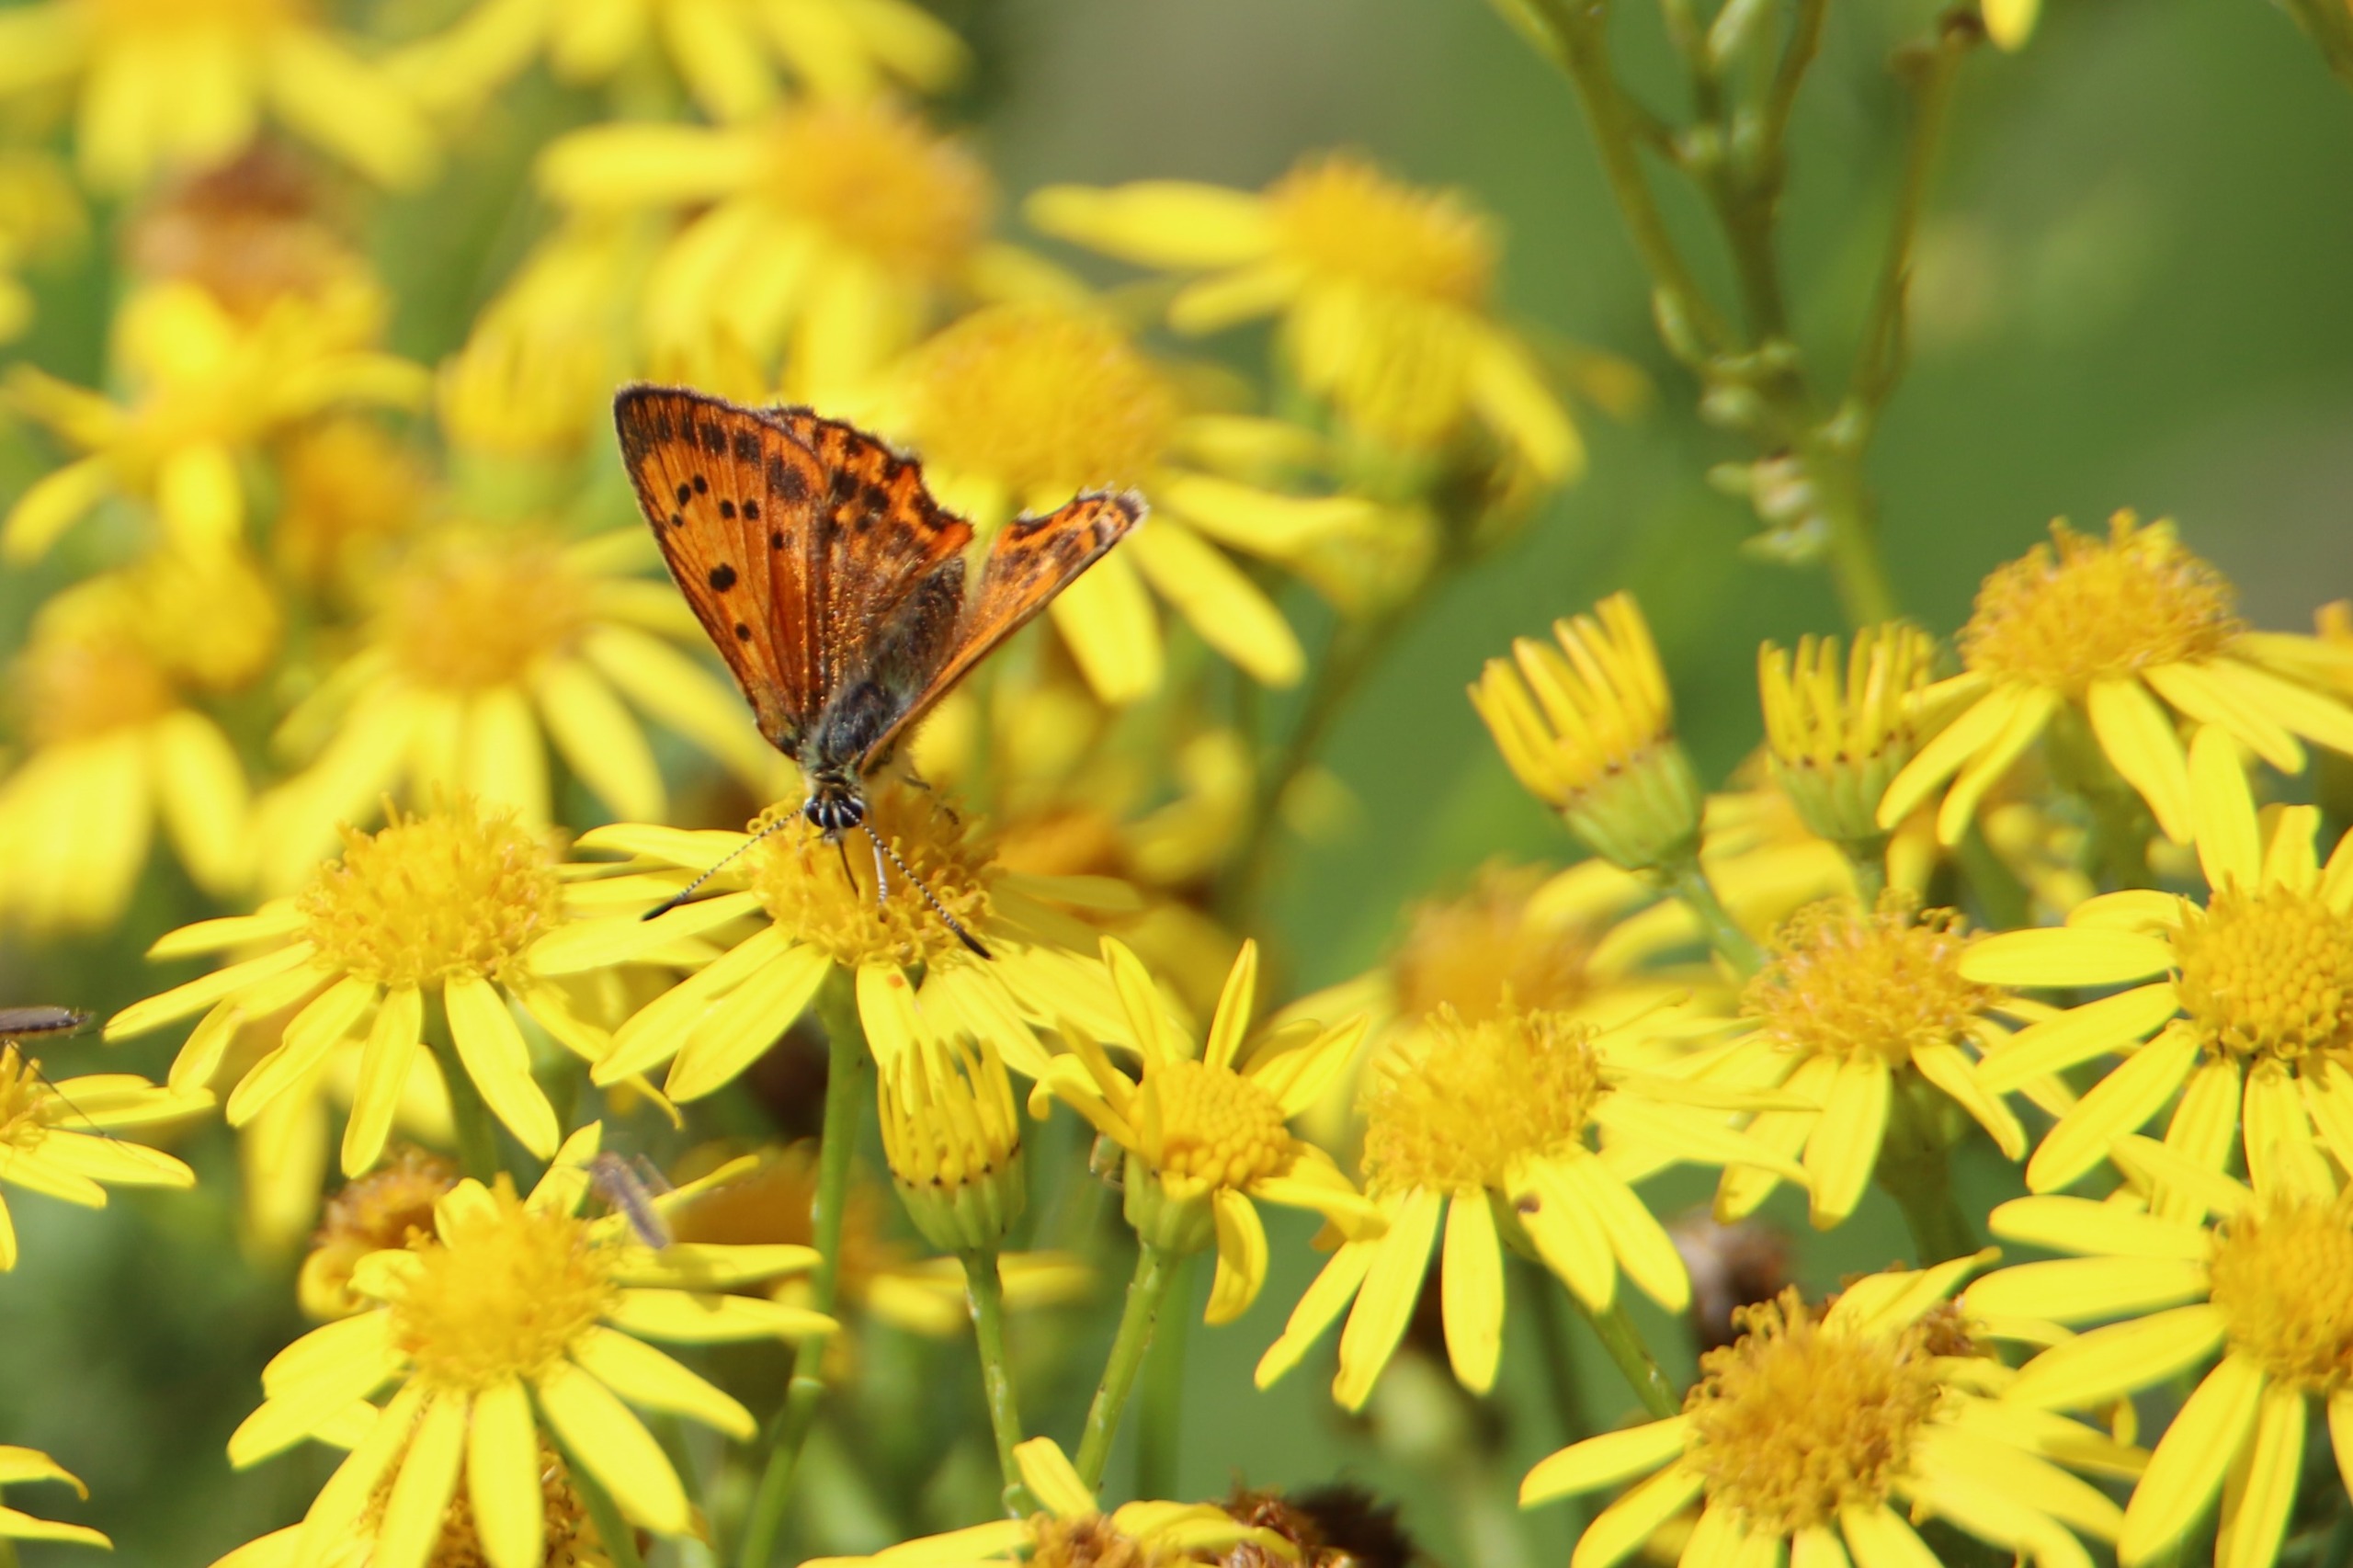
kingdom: Animalia
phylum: Arthropoda
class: Insecta
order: Lepidoptera
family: Lycaenidae
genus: Lycaena
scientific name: Lycaena virgaureae
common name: Dukatsommerfugl
